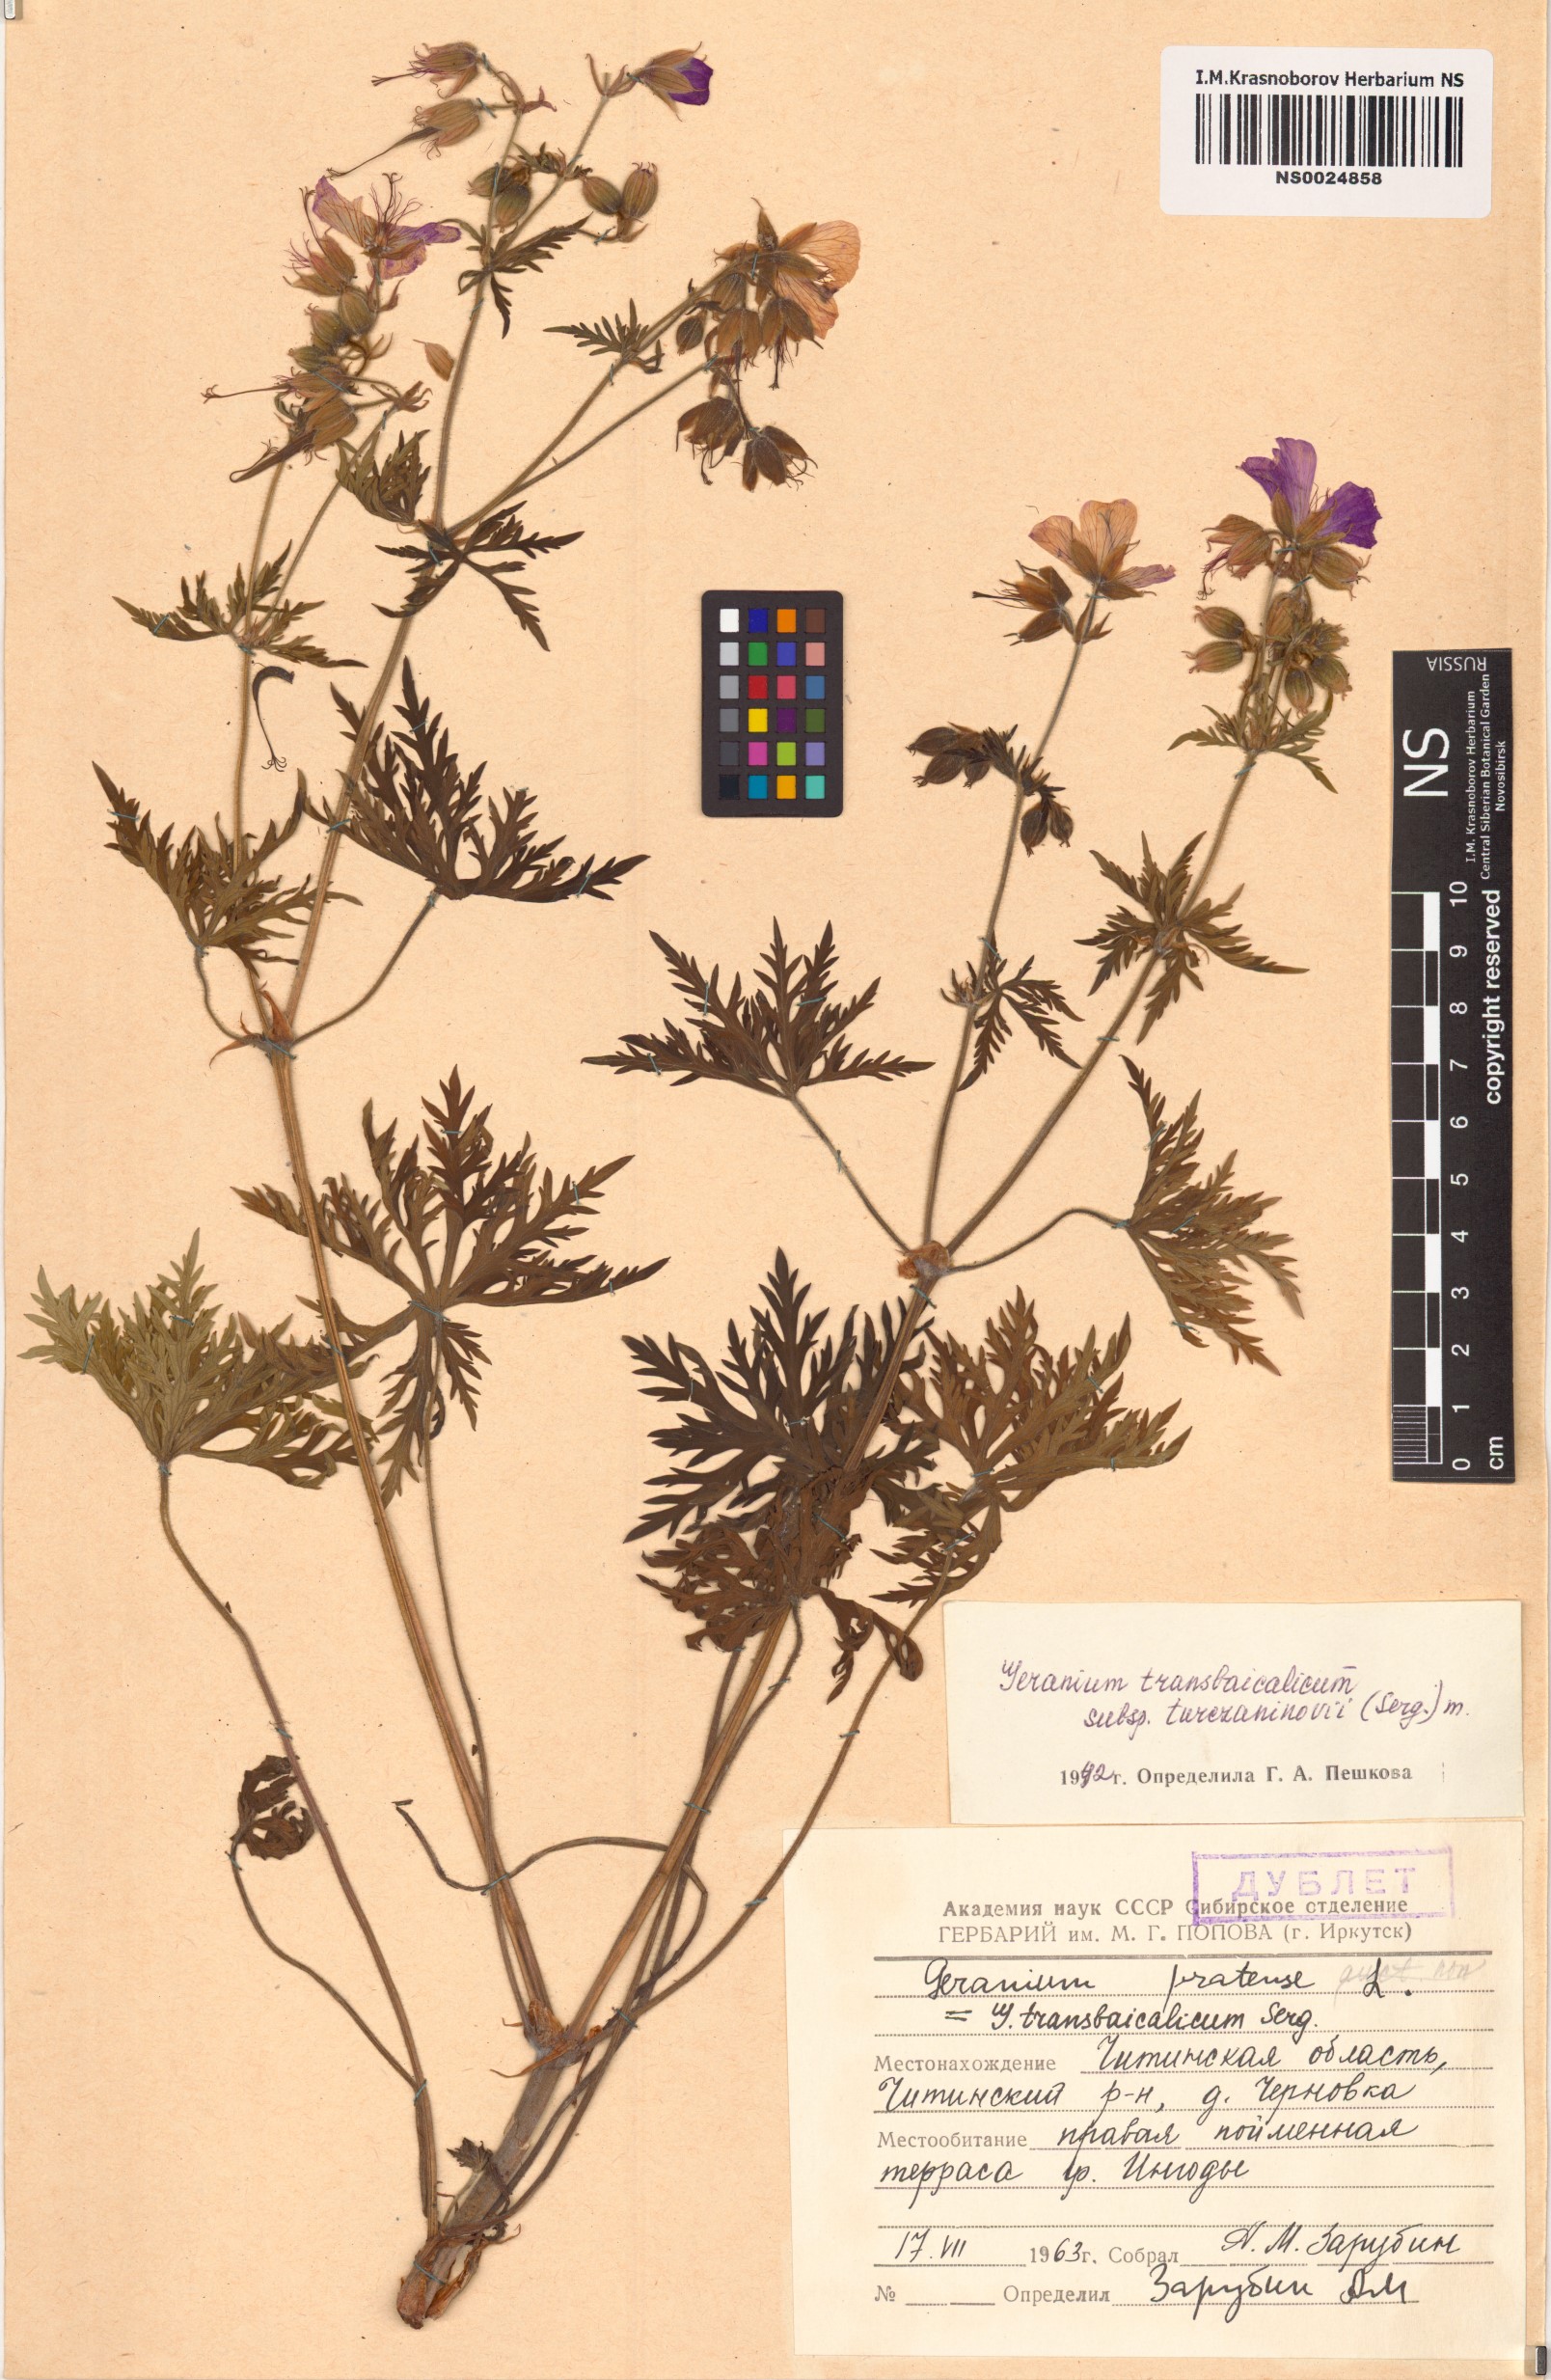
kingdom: Plantae
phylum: Tracheophyta
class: Magnoliopsida
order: Geraniales
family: Geraniaceae
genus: Geranium
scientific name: Geranium pratense
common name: Meadow crane's-bill
